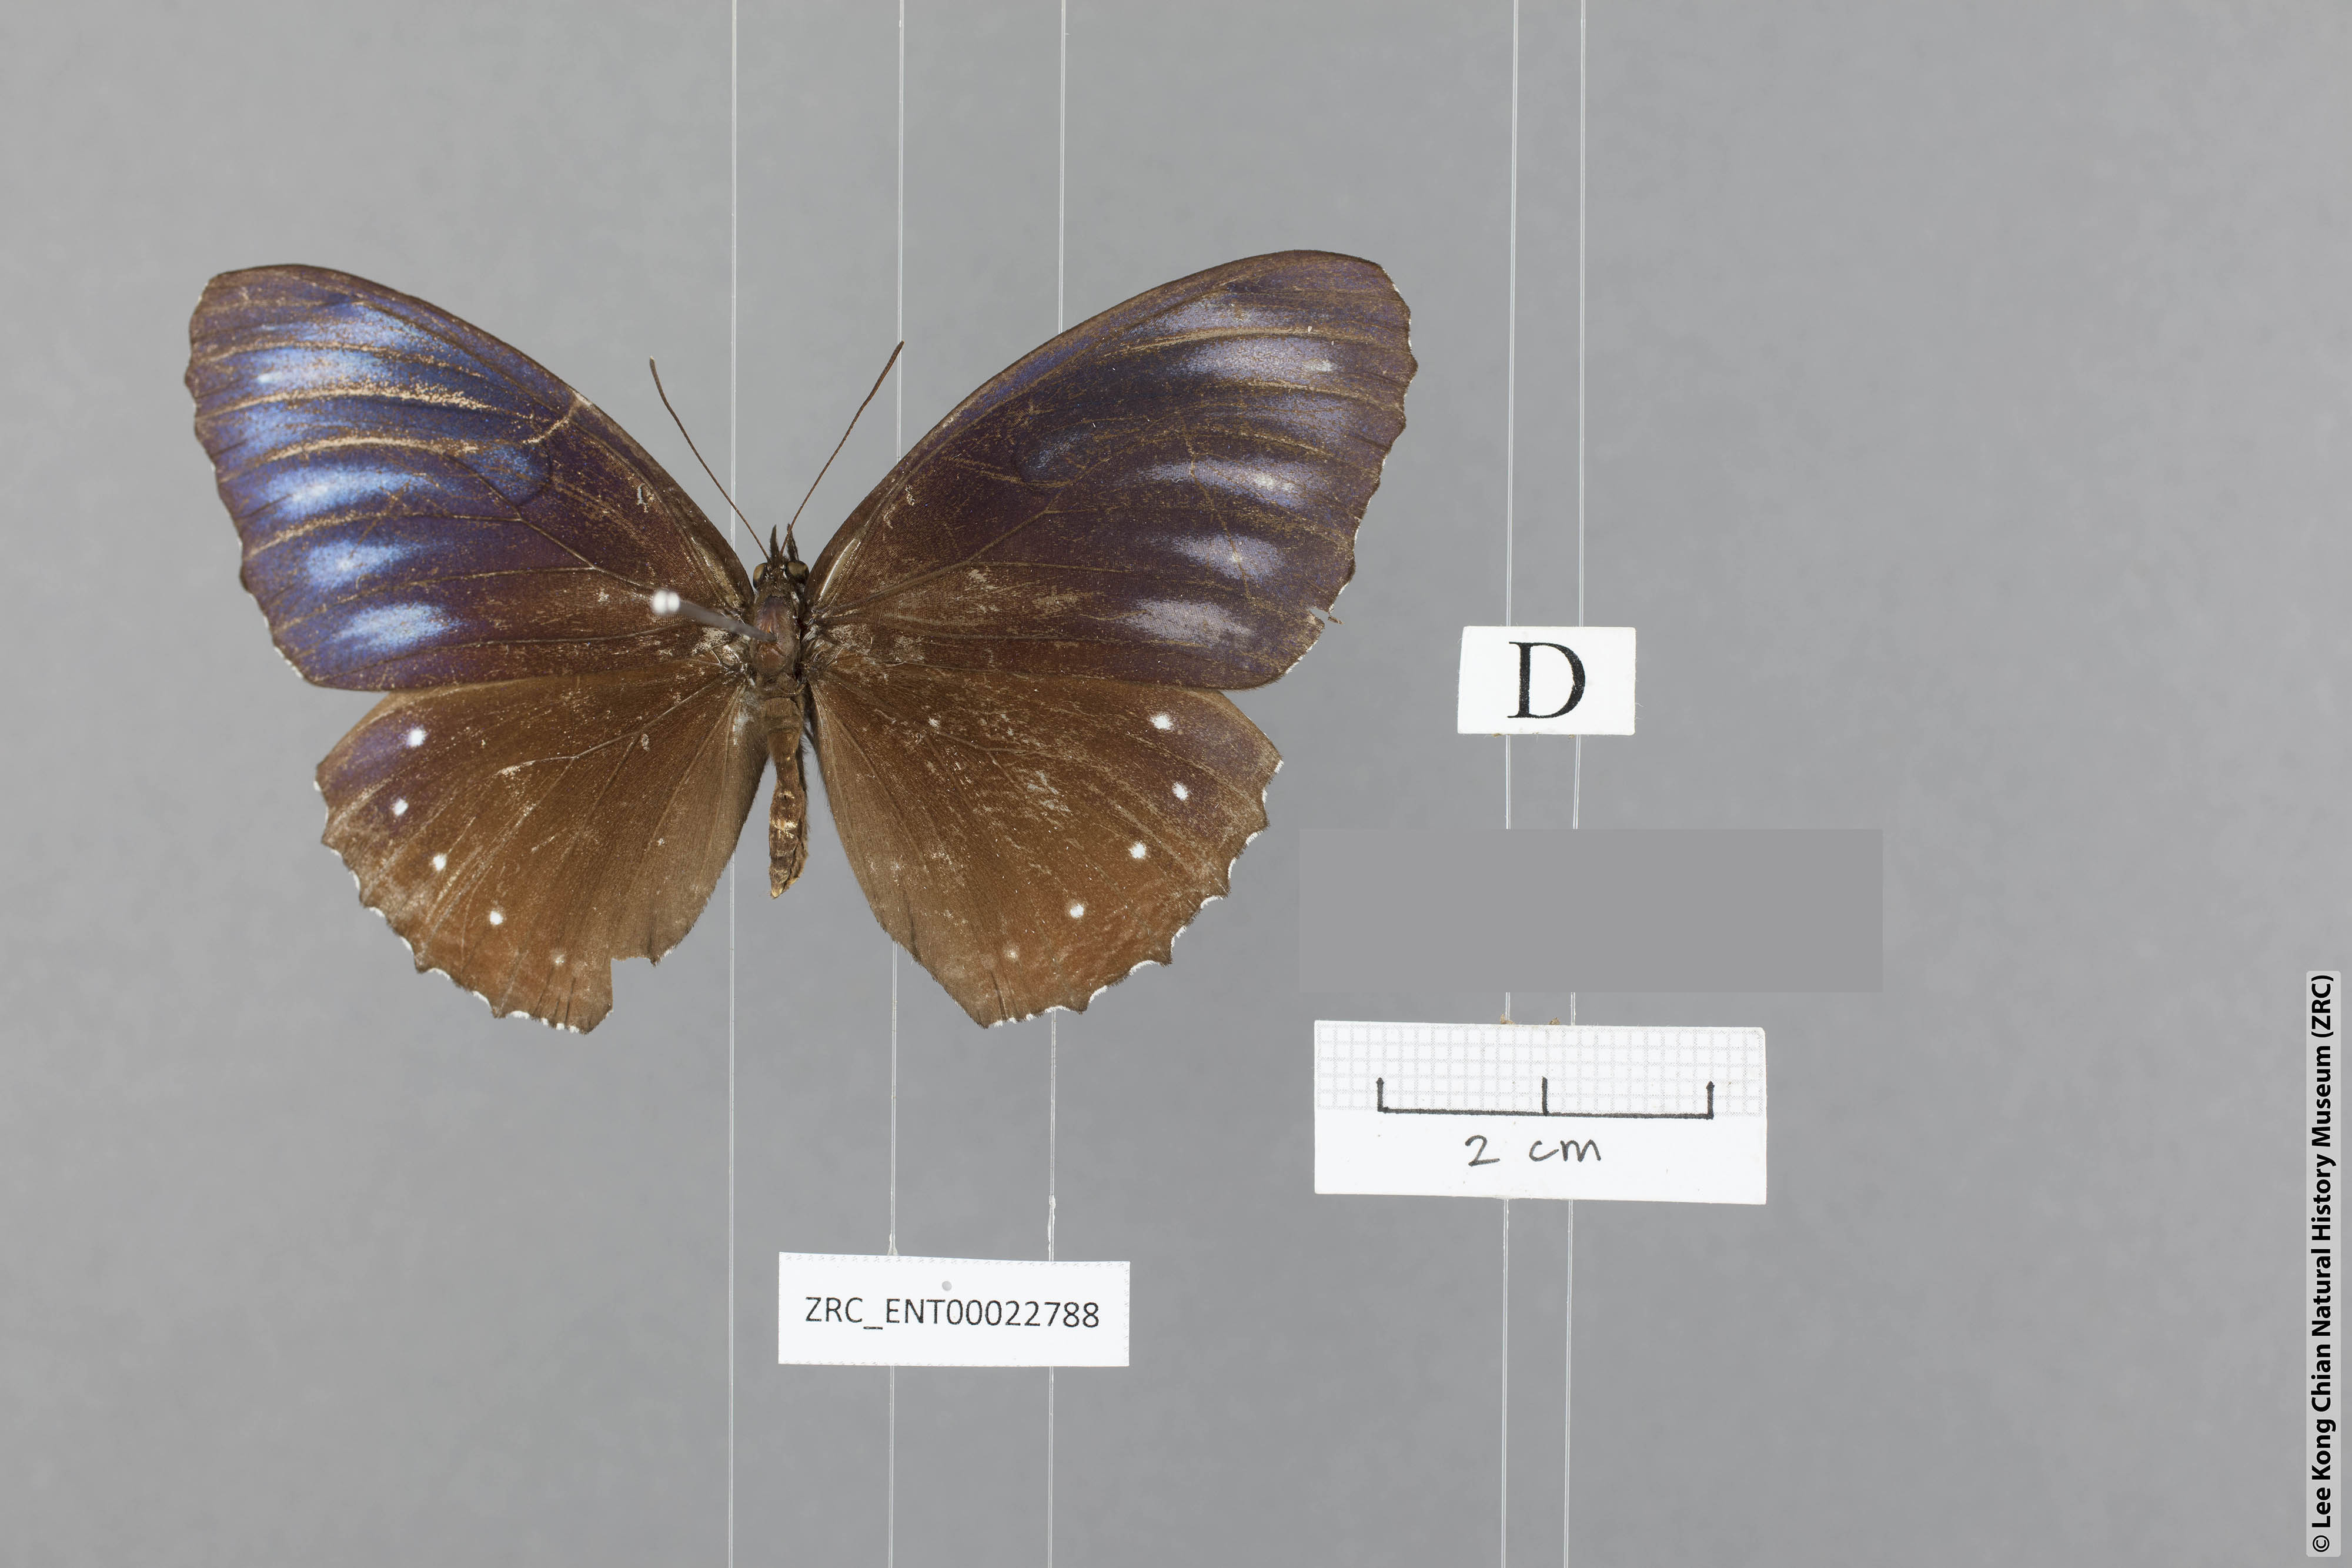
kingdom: Animalia
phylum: Arthropoda
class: Insecta
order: Lepidoptera
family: Nymphalidae
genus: Elymnias
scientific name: Elymnias patna
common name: Blue-striped palmfly
